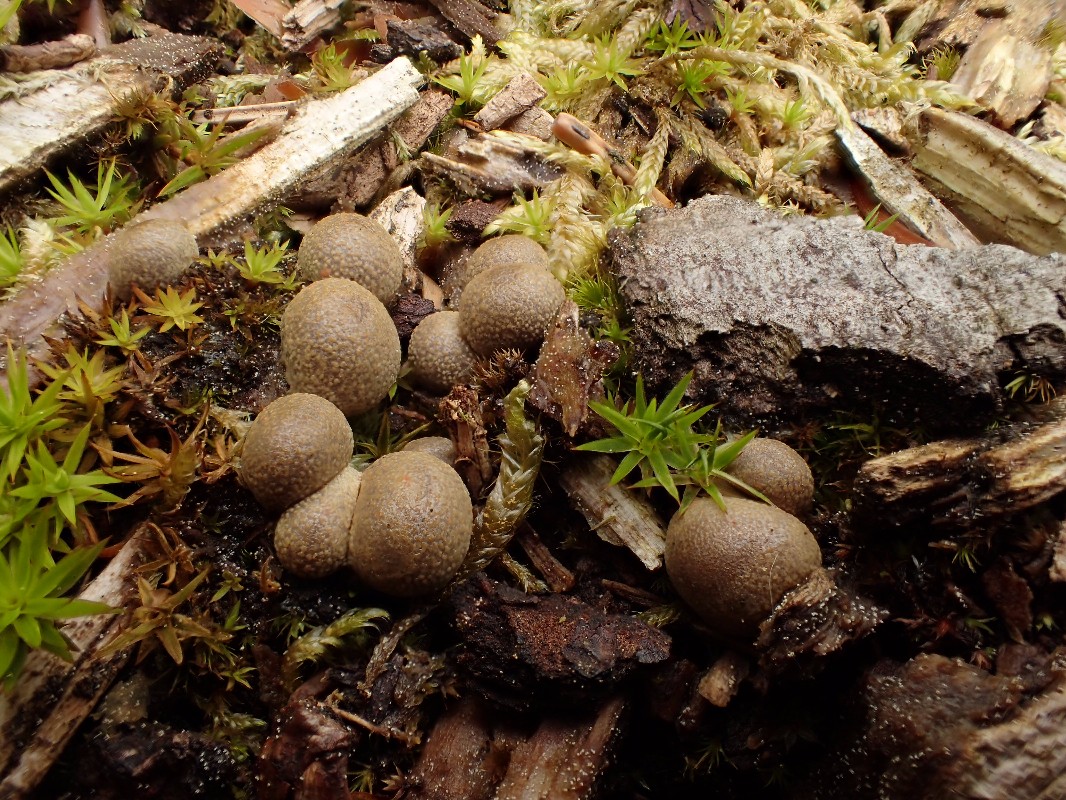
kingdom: Protozoa
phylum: Mycetozoa
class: Myxomycetes
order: Cribrariales
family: Tubiferaceae
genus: Lycogala
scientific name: Lycogala epidendrum
